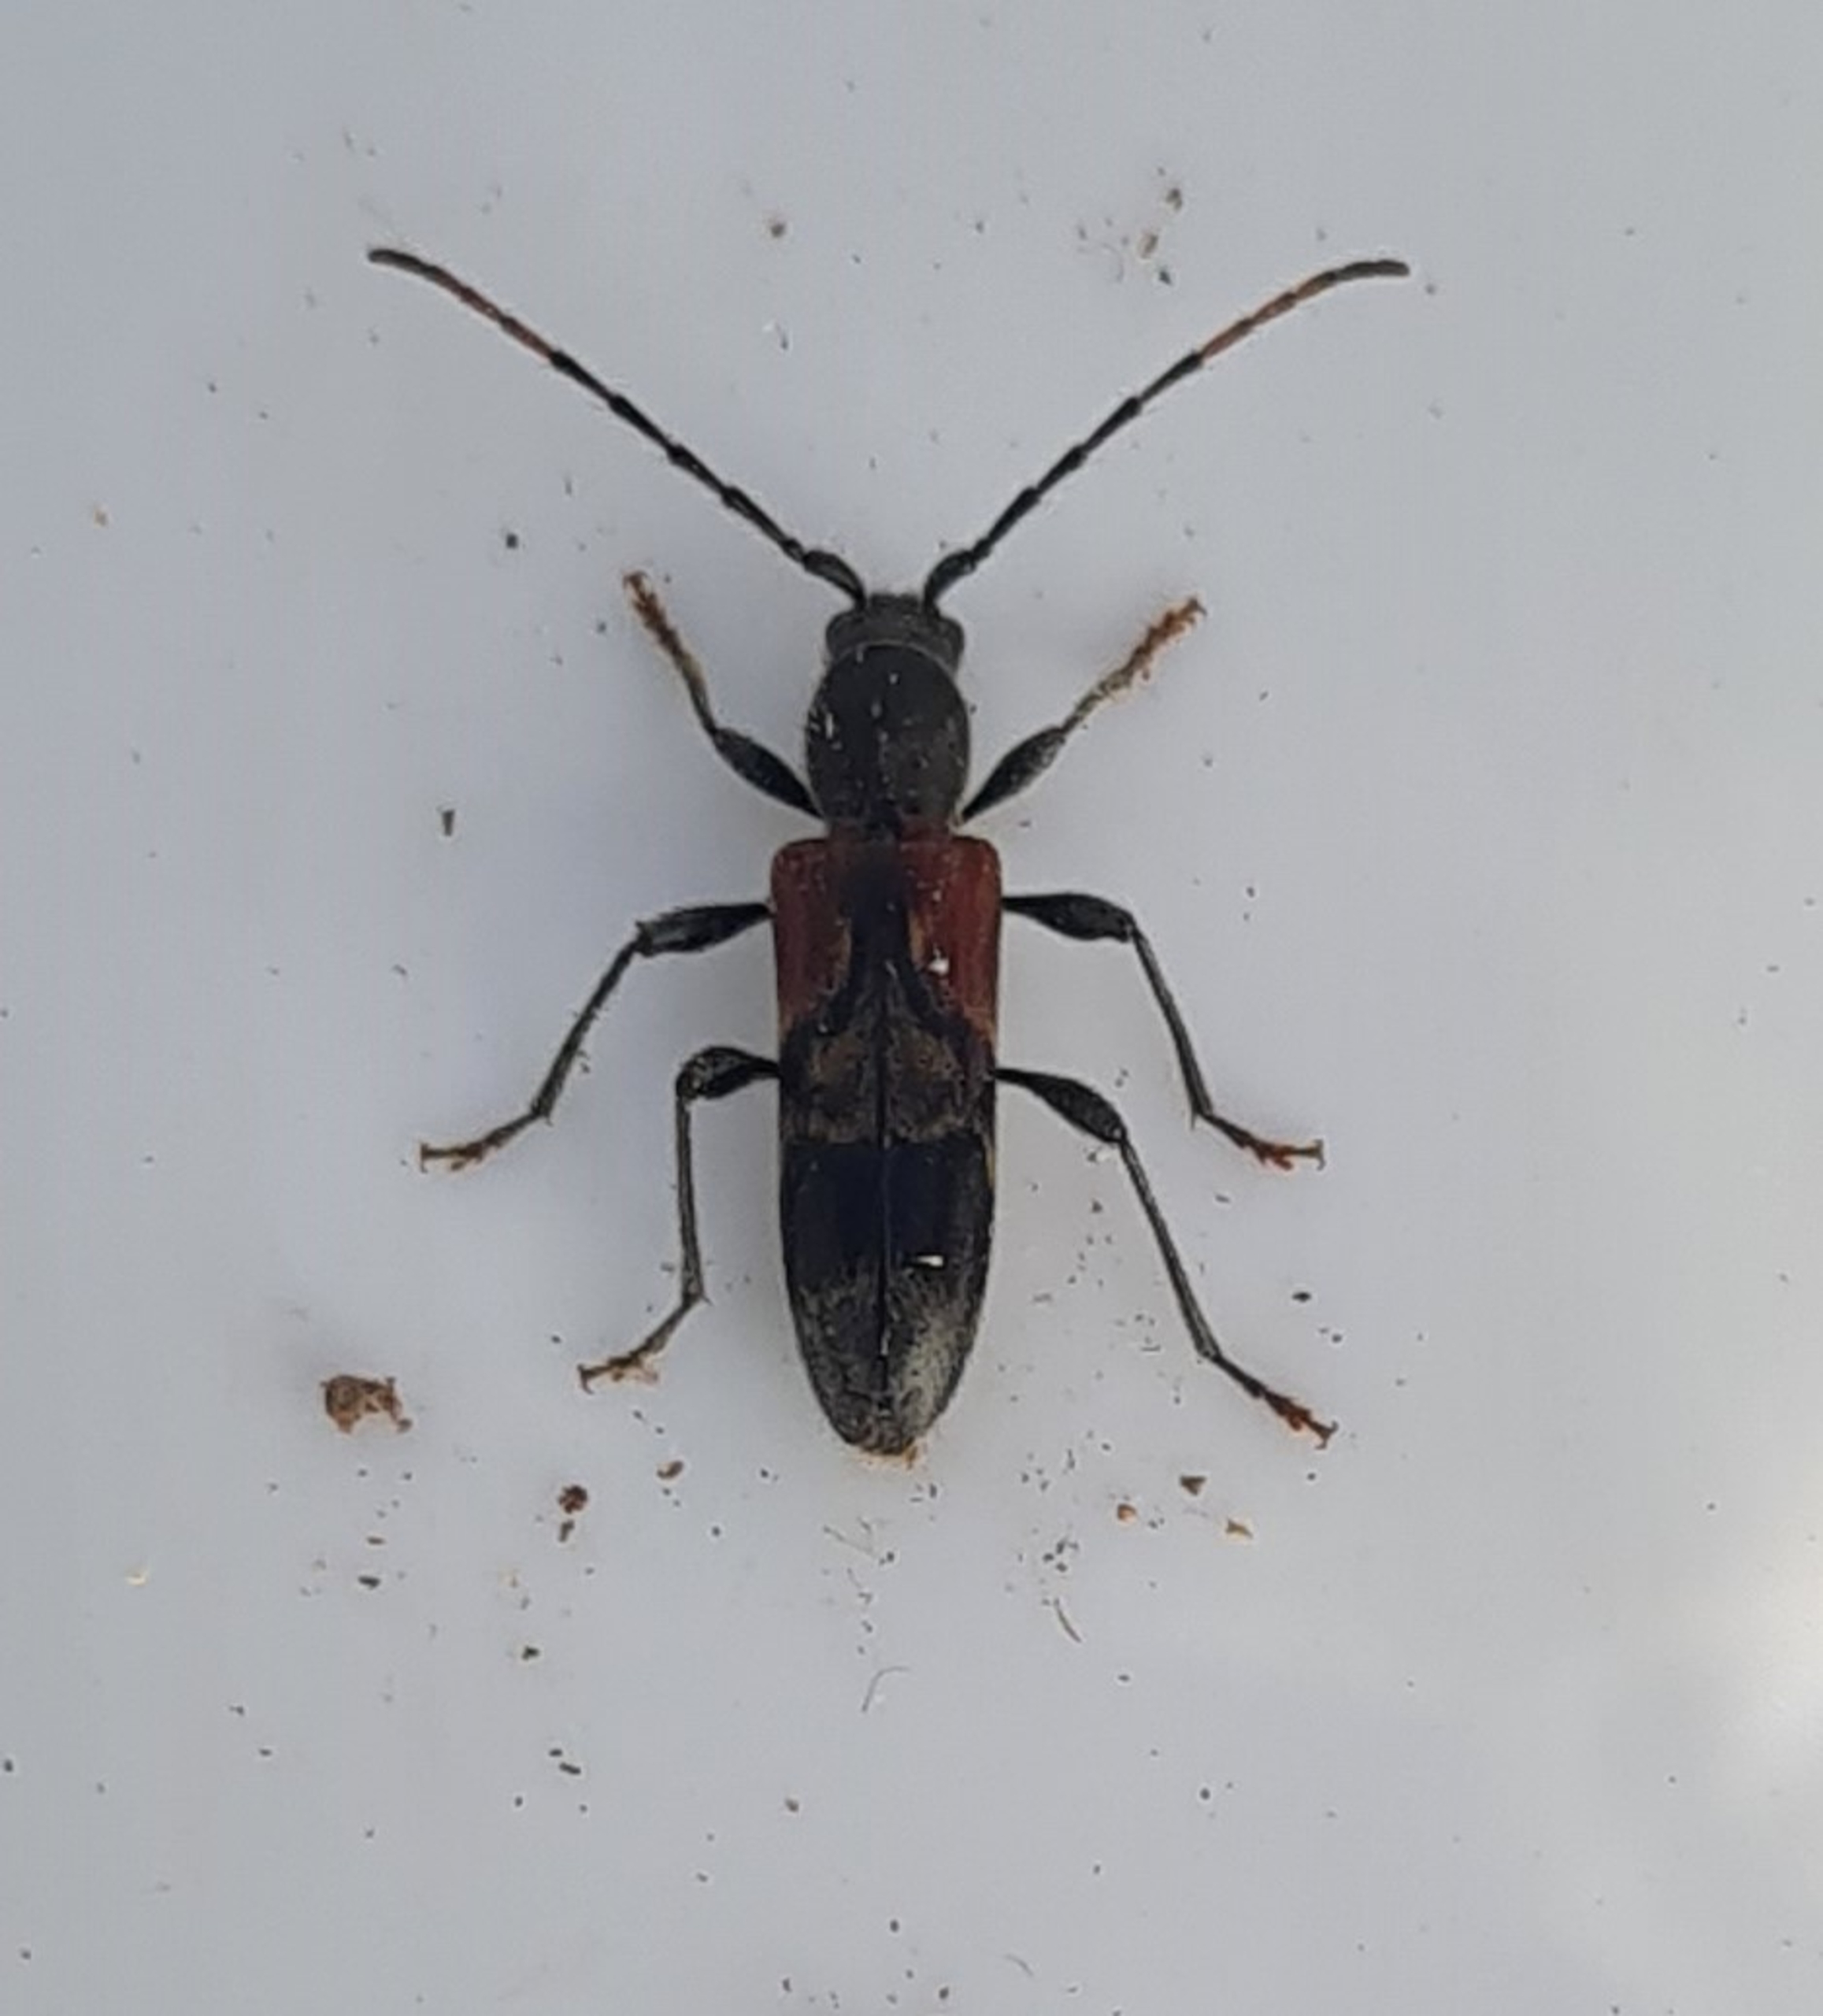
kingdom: Animalia
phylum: Arthropoda
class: Insecta
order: Coleoptera
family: Cerambycidae
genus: Anaglyptus
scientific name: Anaglyptus mysticus
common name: Hvidtjørnshvepsebuk
